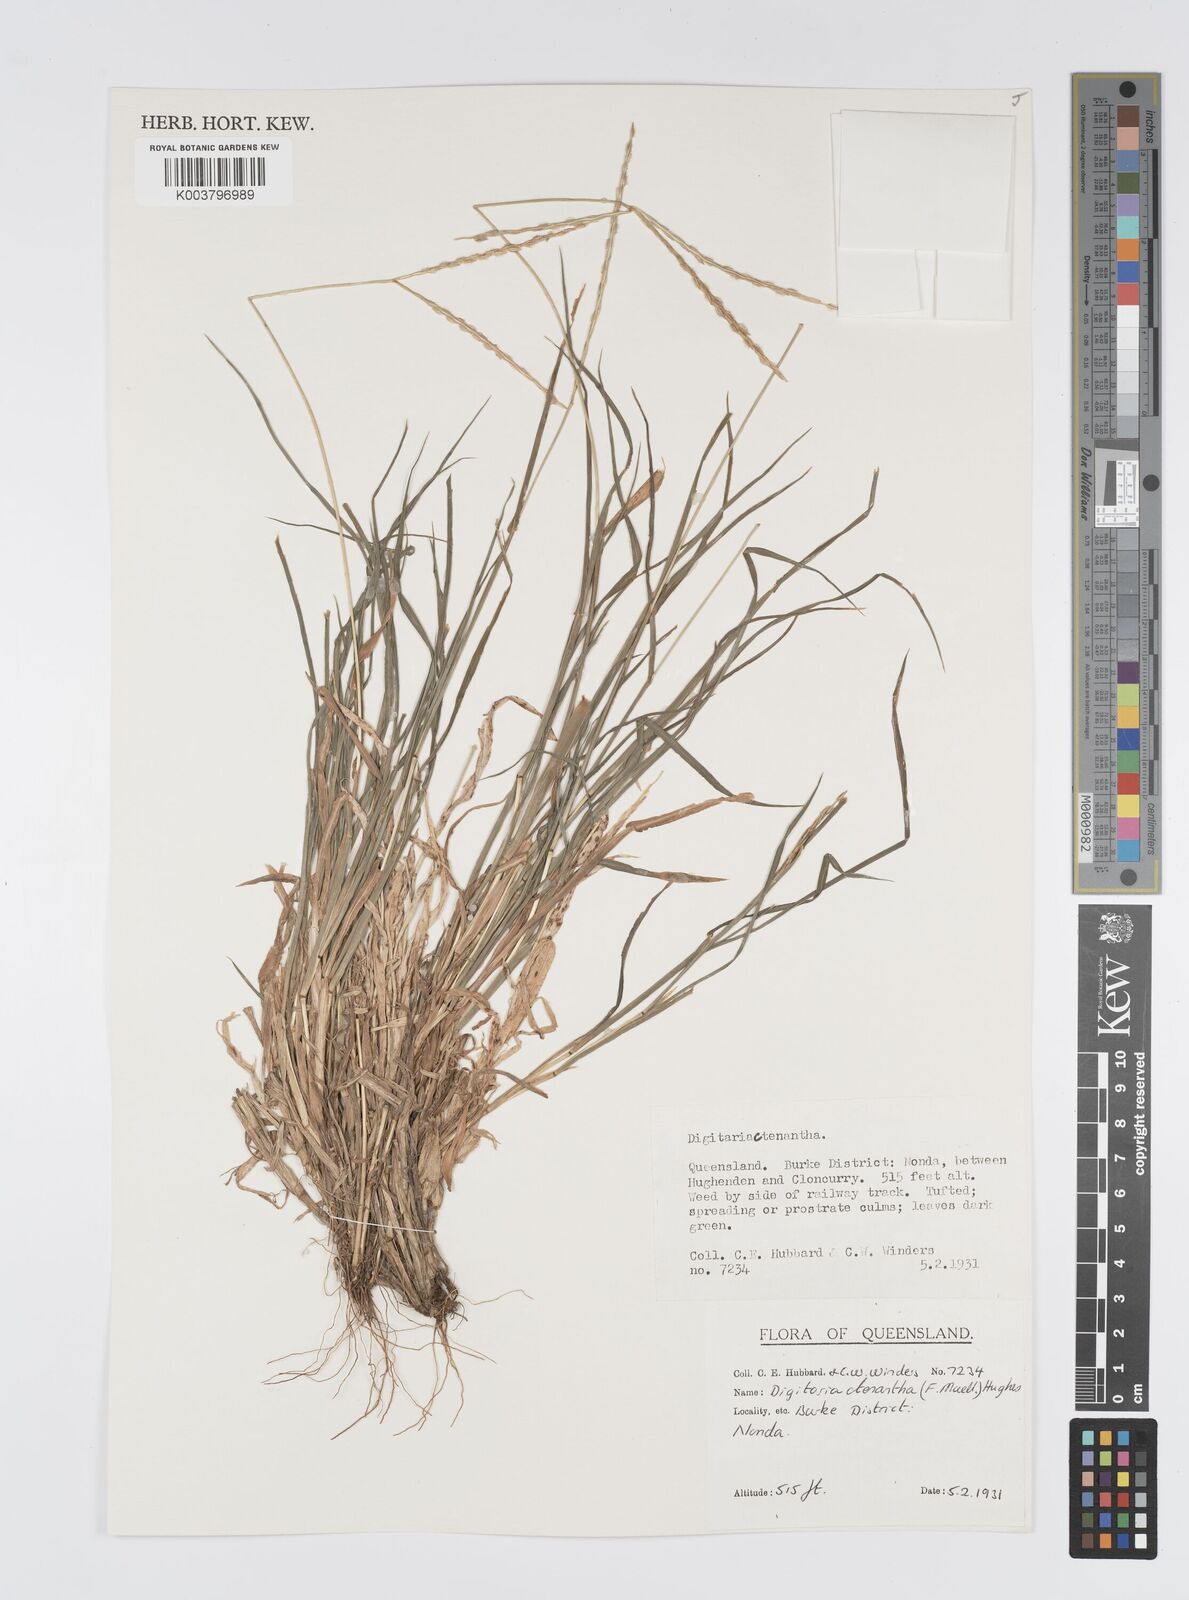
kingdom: Plantae
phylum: Tracheophyta
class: Liliopsida
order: Poales
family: Poaceae
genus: Digitaria
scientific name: Digitaria ctenantha
